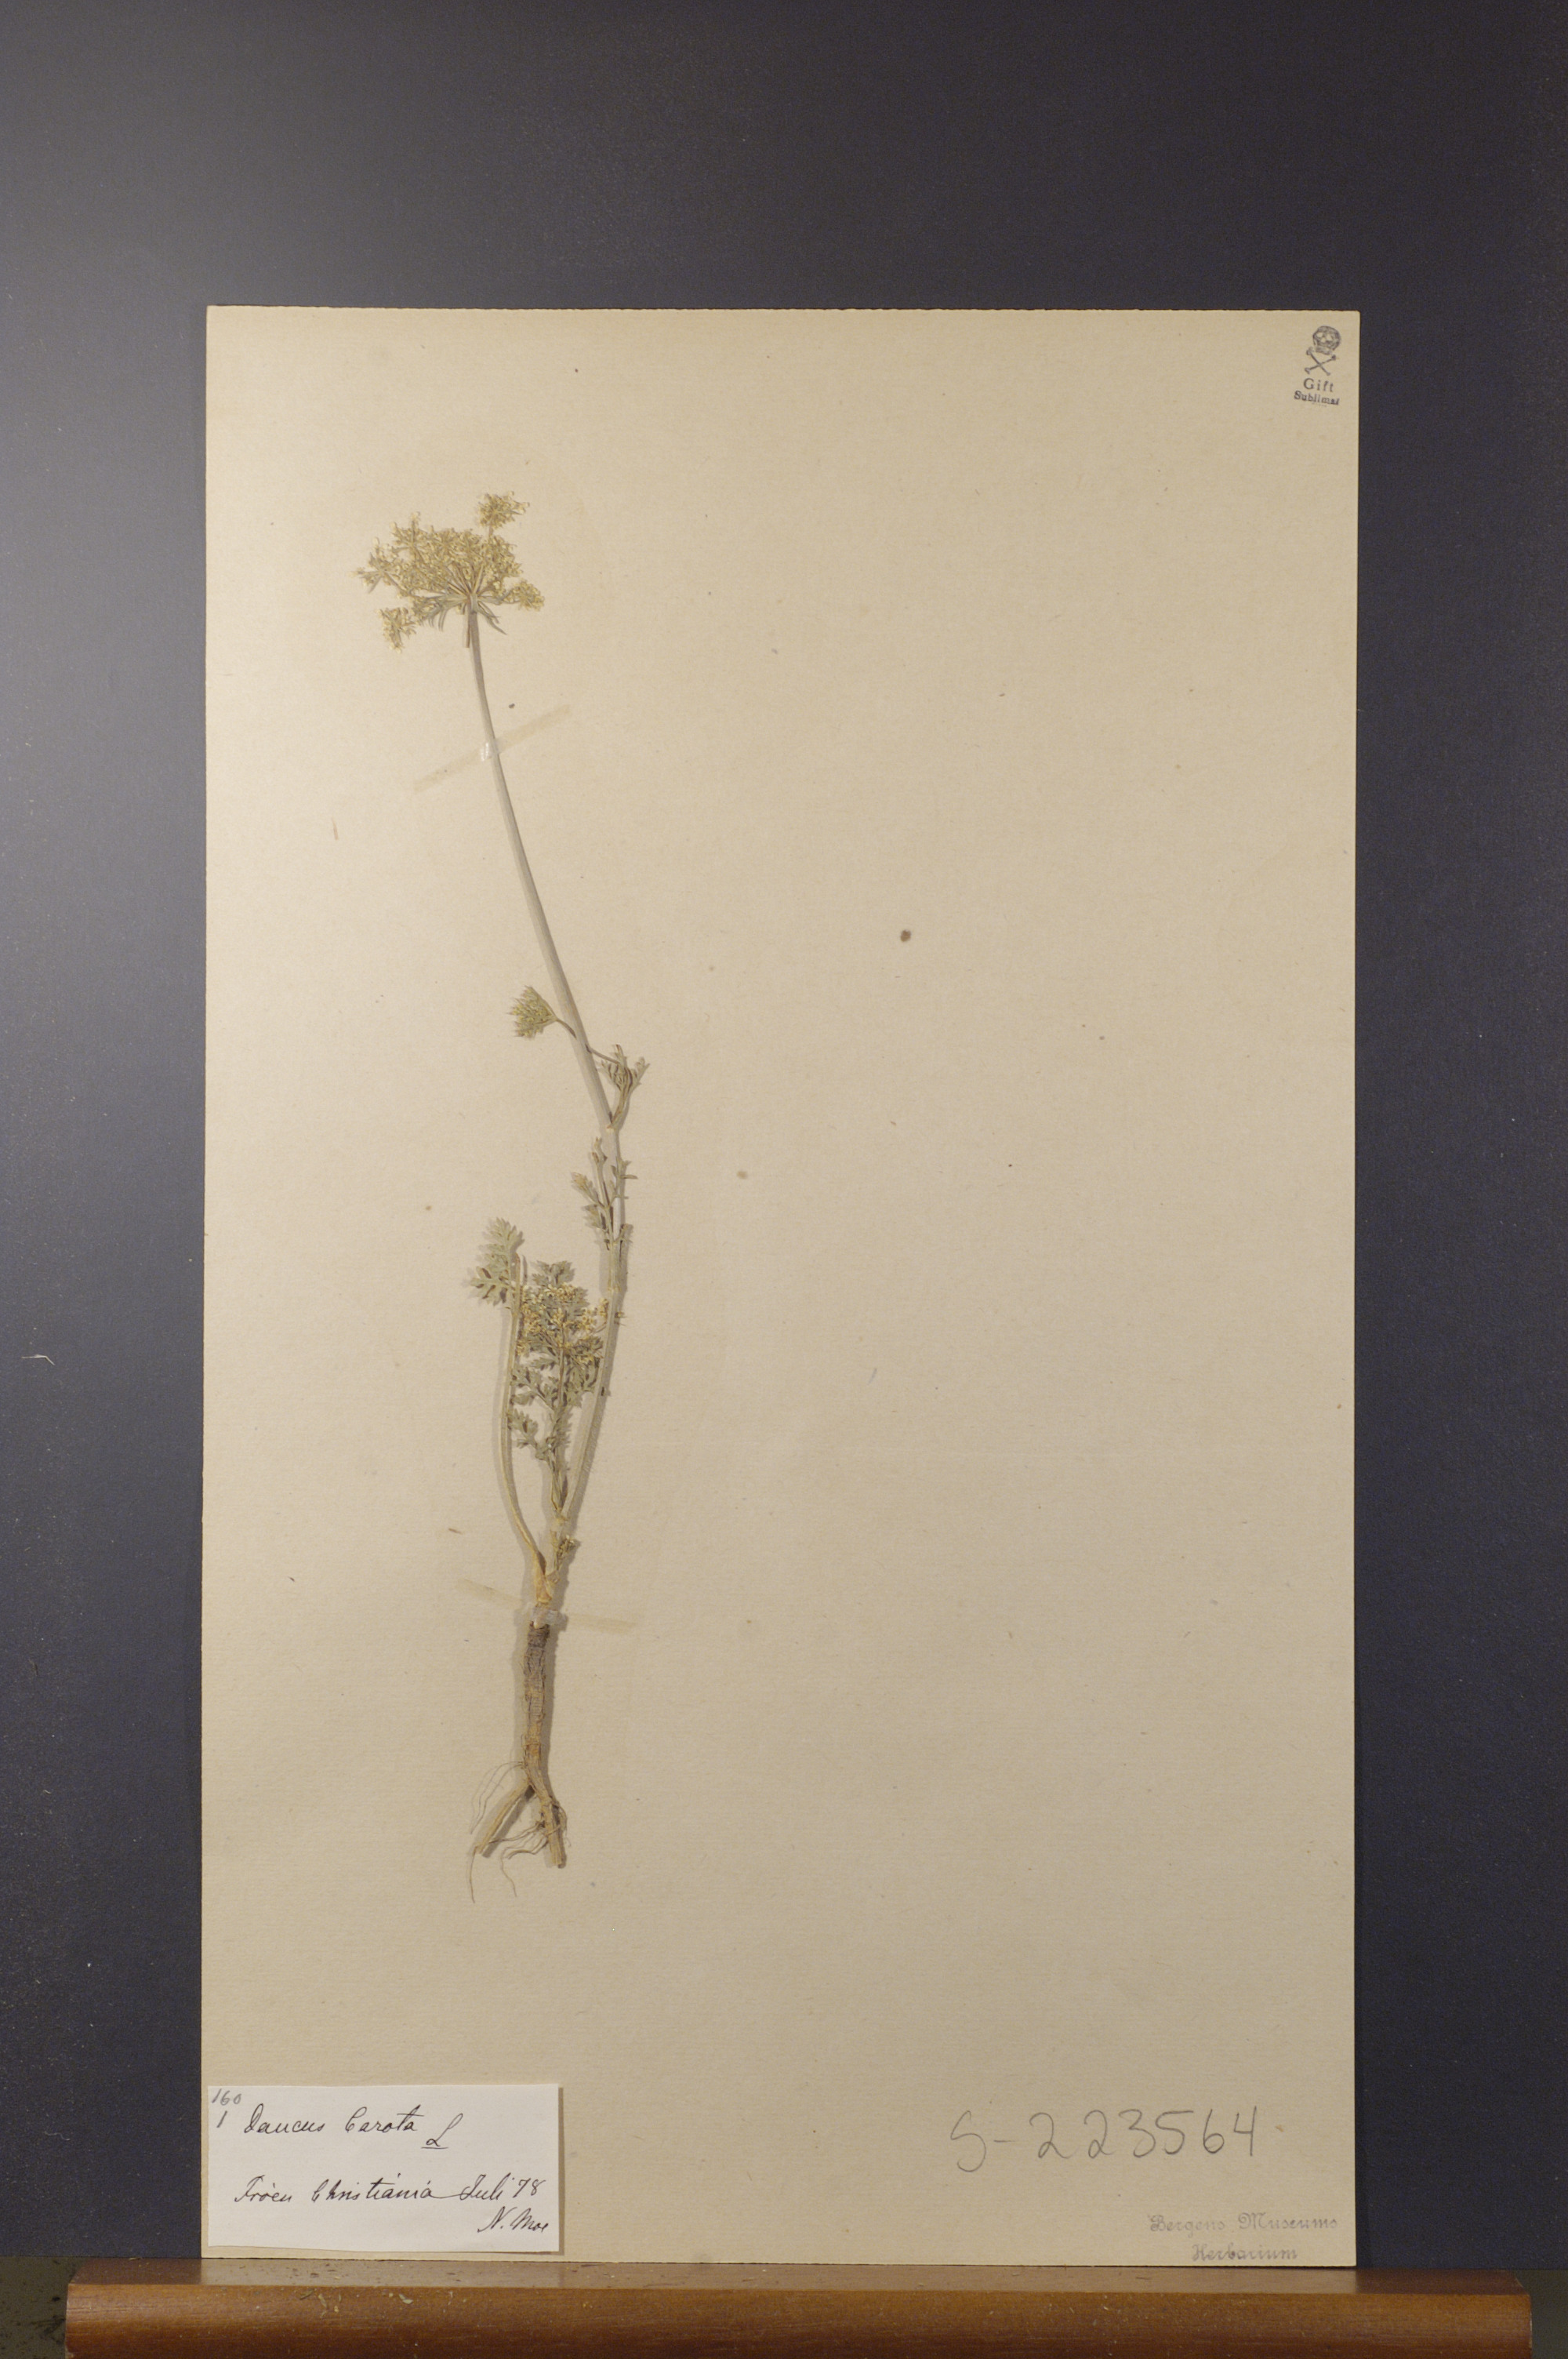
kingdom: Plantae
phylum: Tracheophyta
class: Magnoliopsida
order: Apiales
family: Apiaceae
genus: Daucus
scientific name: Daucus carota
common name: Wild carrot
